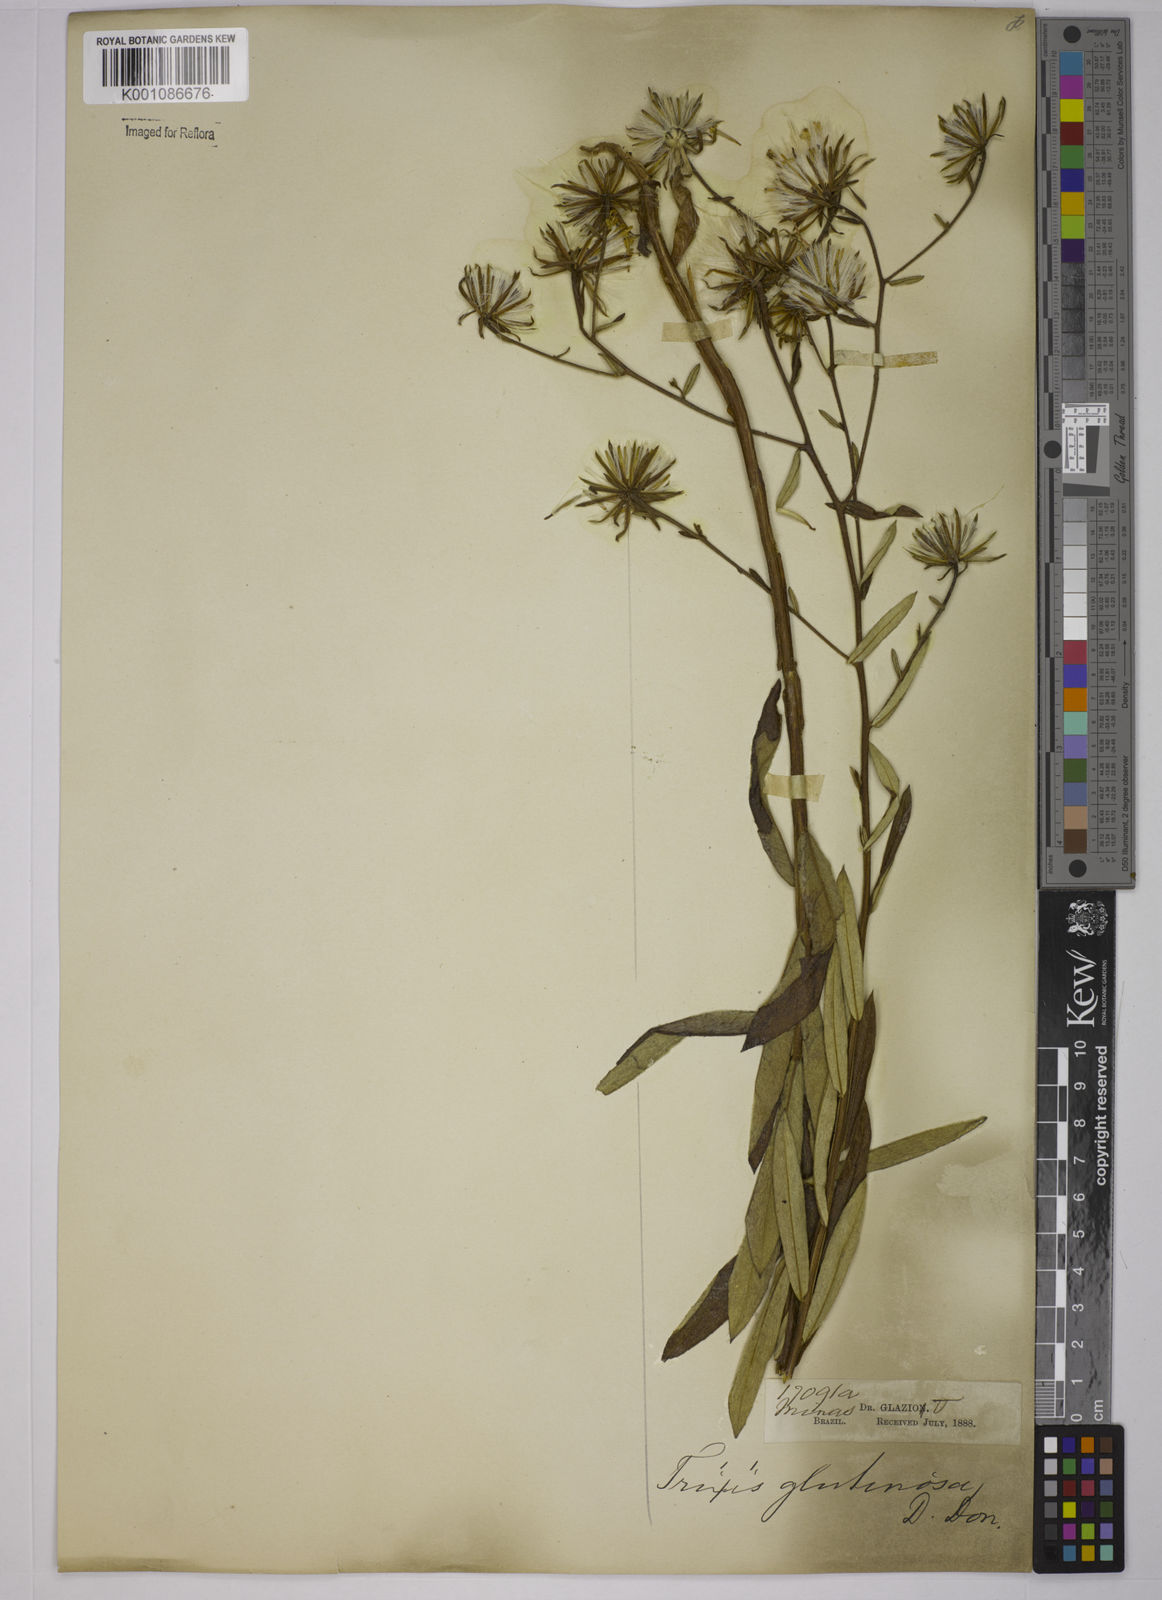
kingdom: Plantae
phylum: Tracheophyta
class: Magnoliopsida
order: Asterales
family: Asteraceae
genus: Trixis
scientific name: Trixis glutinosa
